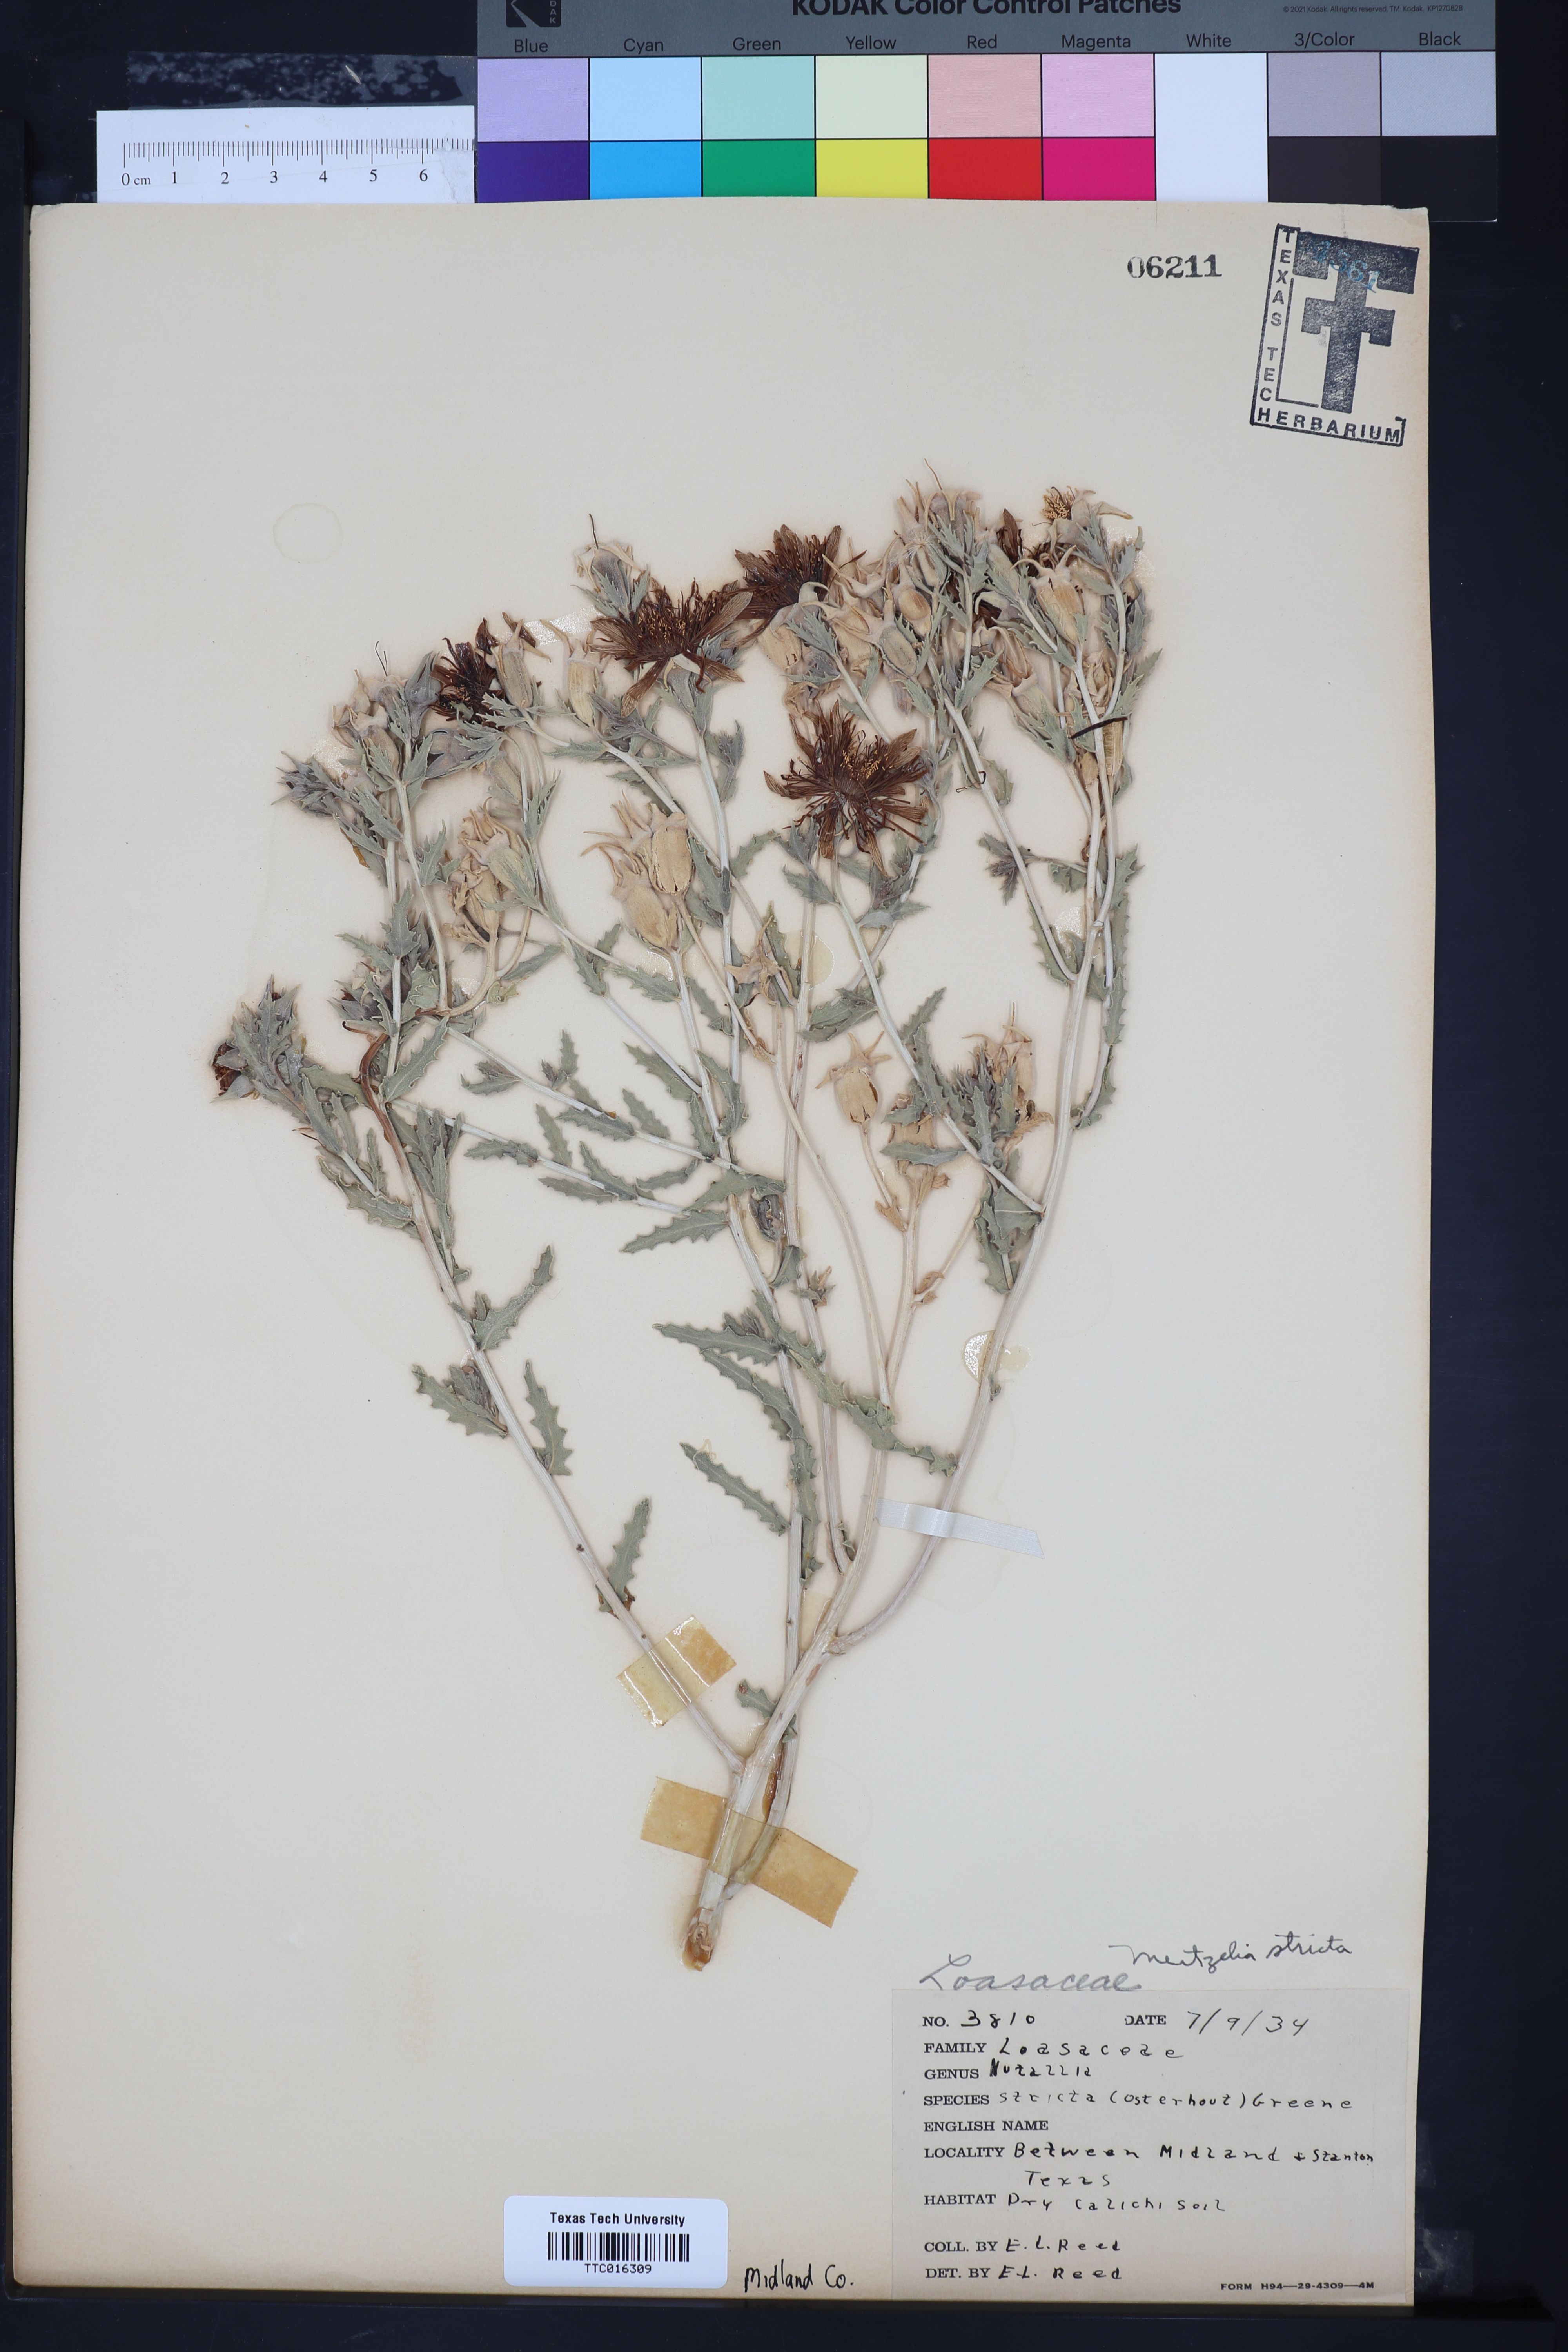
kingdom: Plantae
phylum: Tracheophyta
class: Magnoliopsida
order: Cornales
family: Loasaceae
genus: Mentzelia
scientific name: Mentzelia nuda
